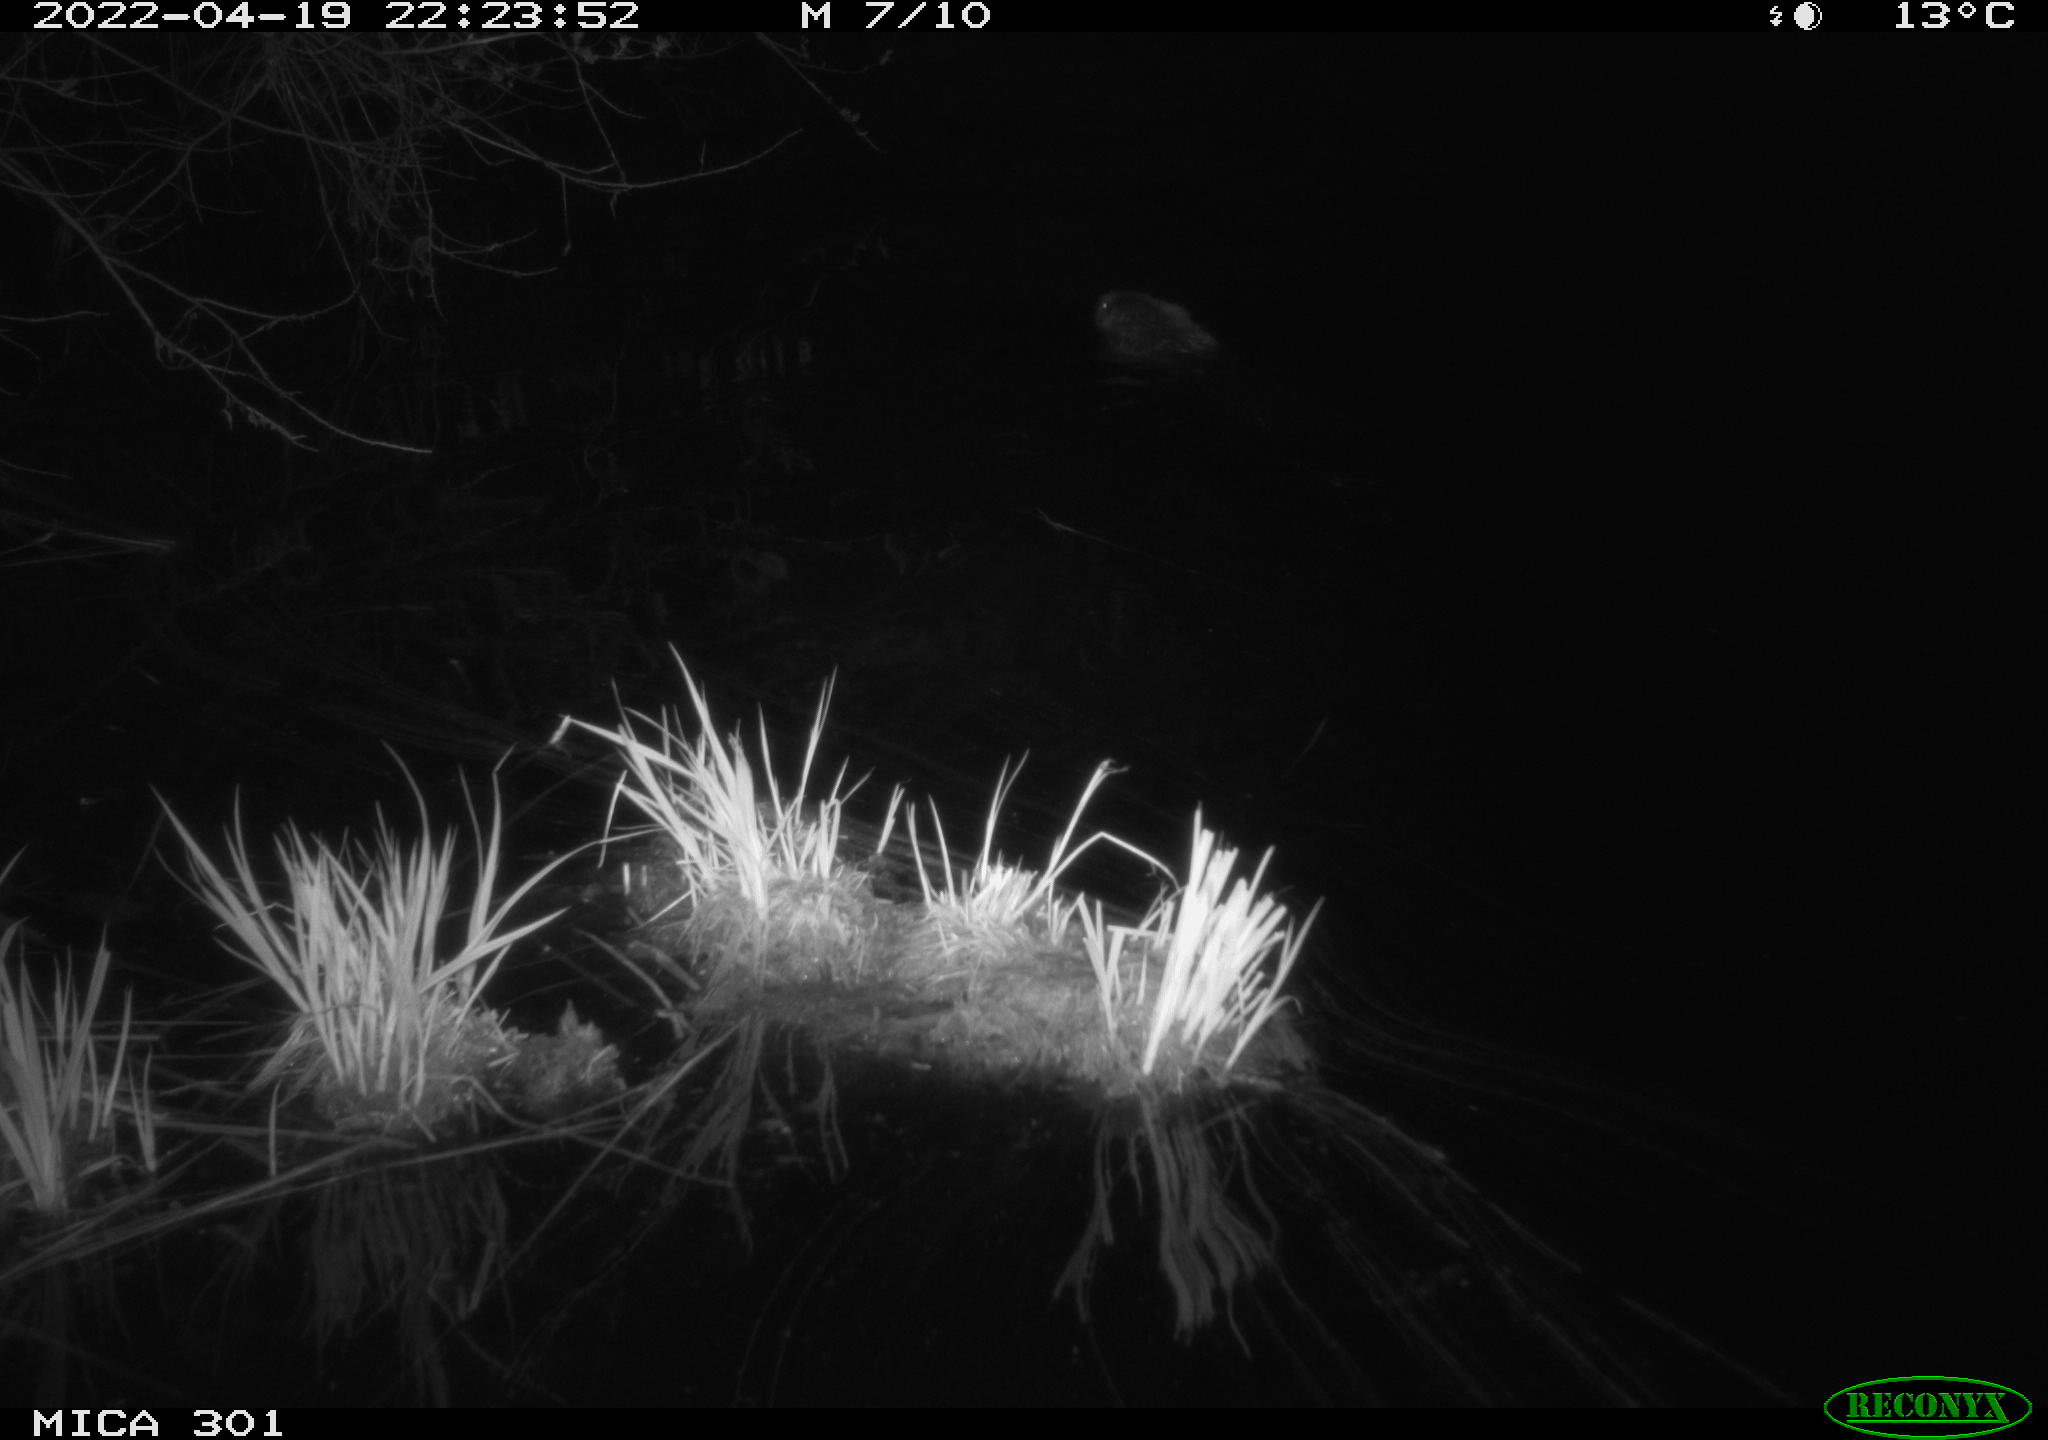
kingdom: Animalia
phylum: Chordata
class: Mammalia
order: Rodentia
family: Castoridae
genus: Castor
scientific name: Castor fiber
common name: Eurasian beaver
